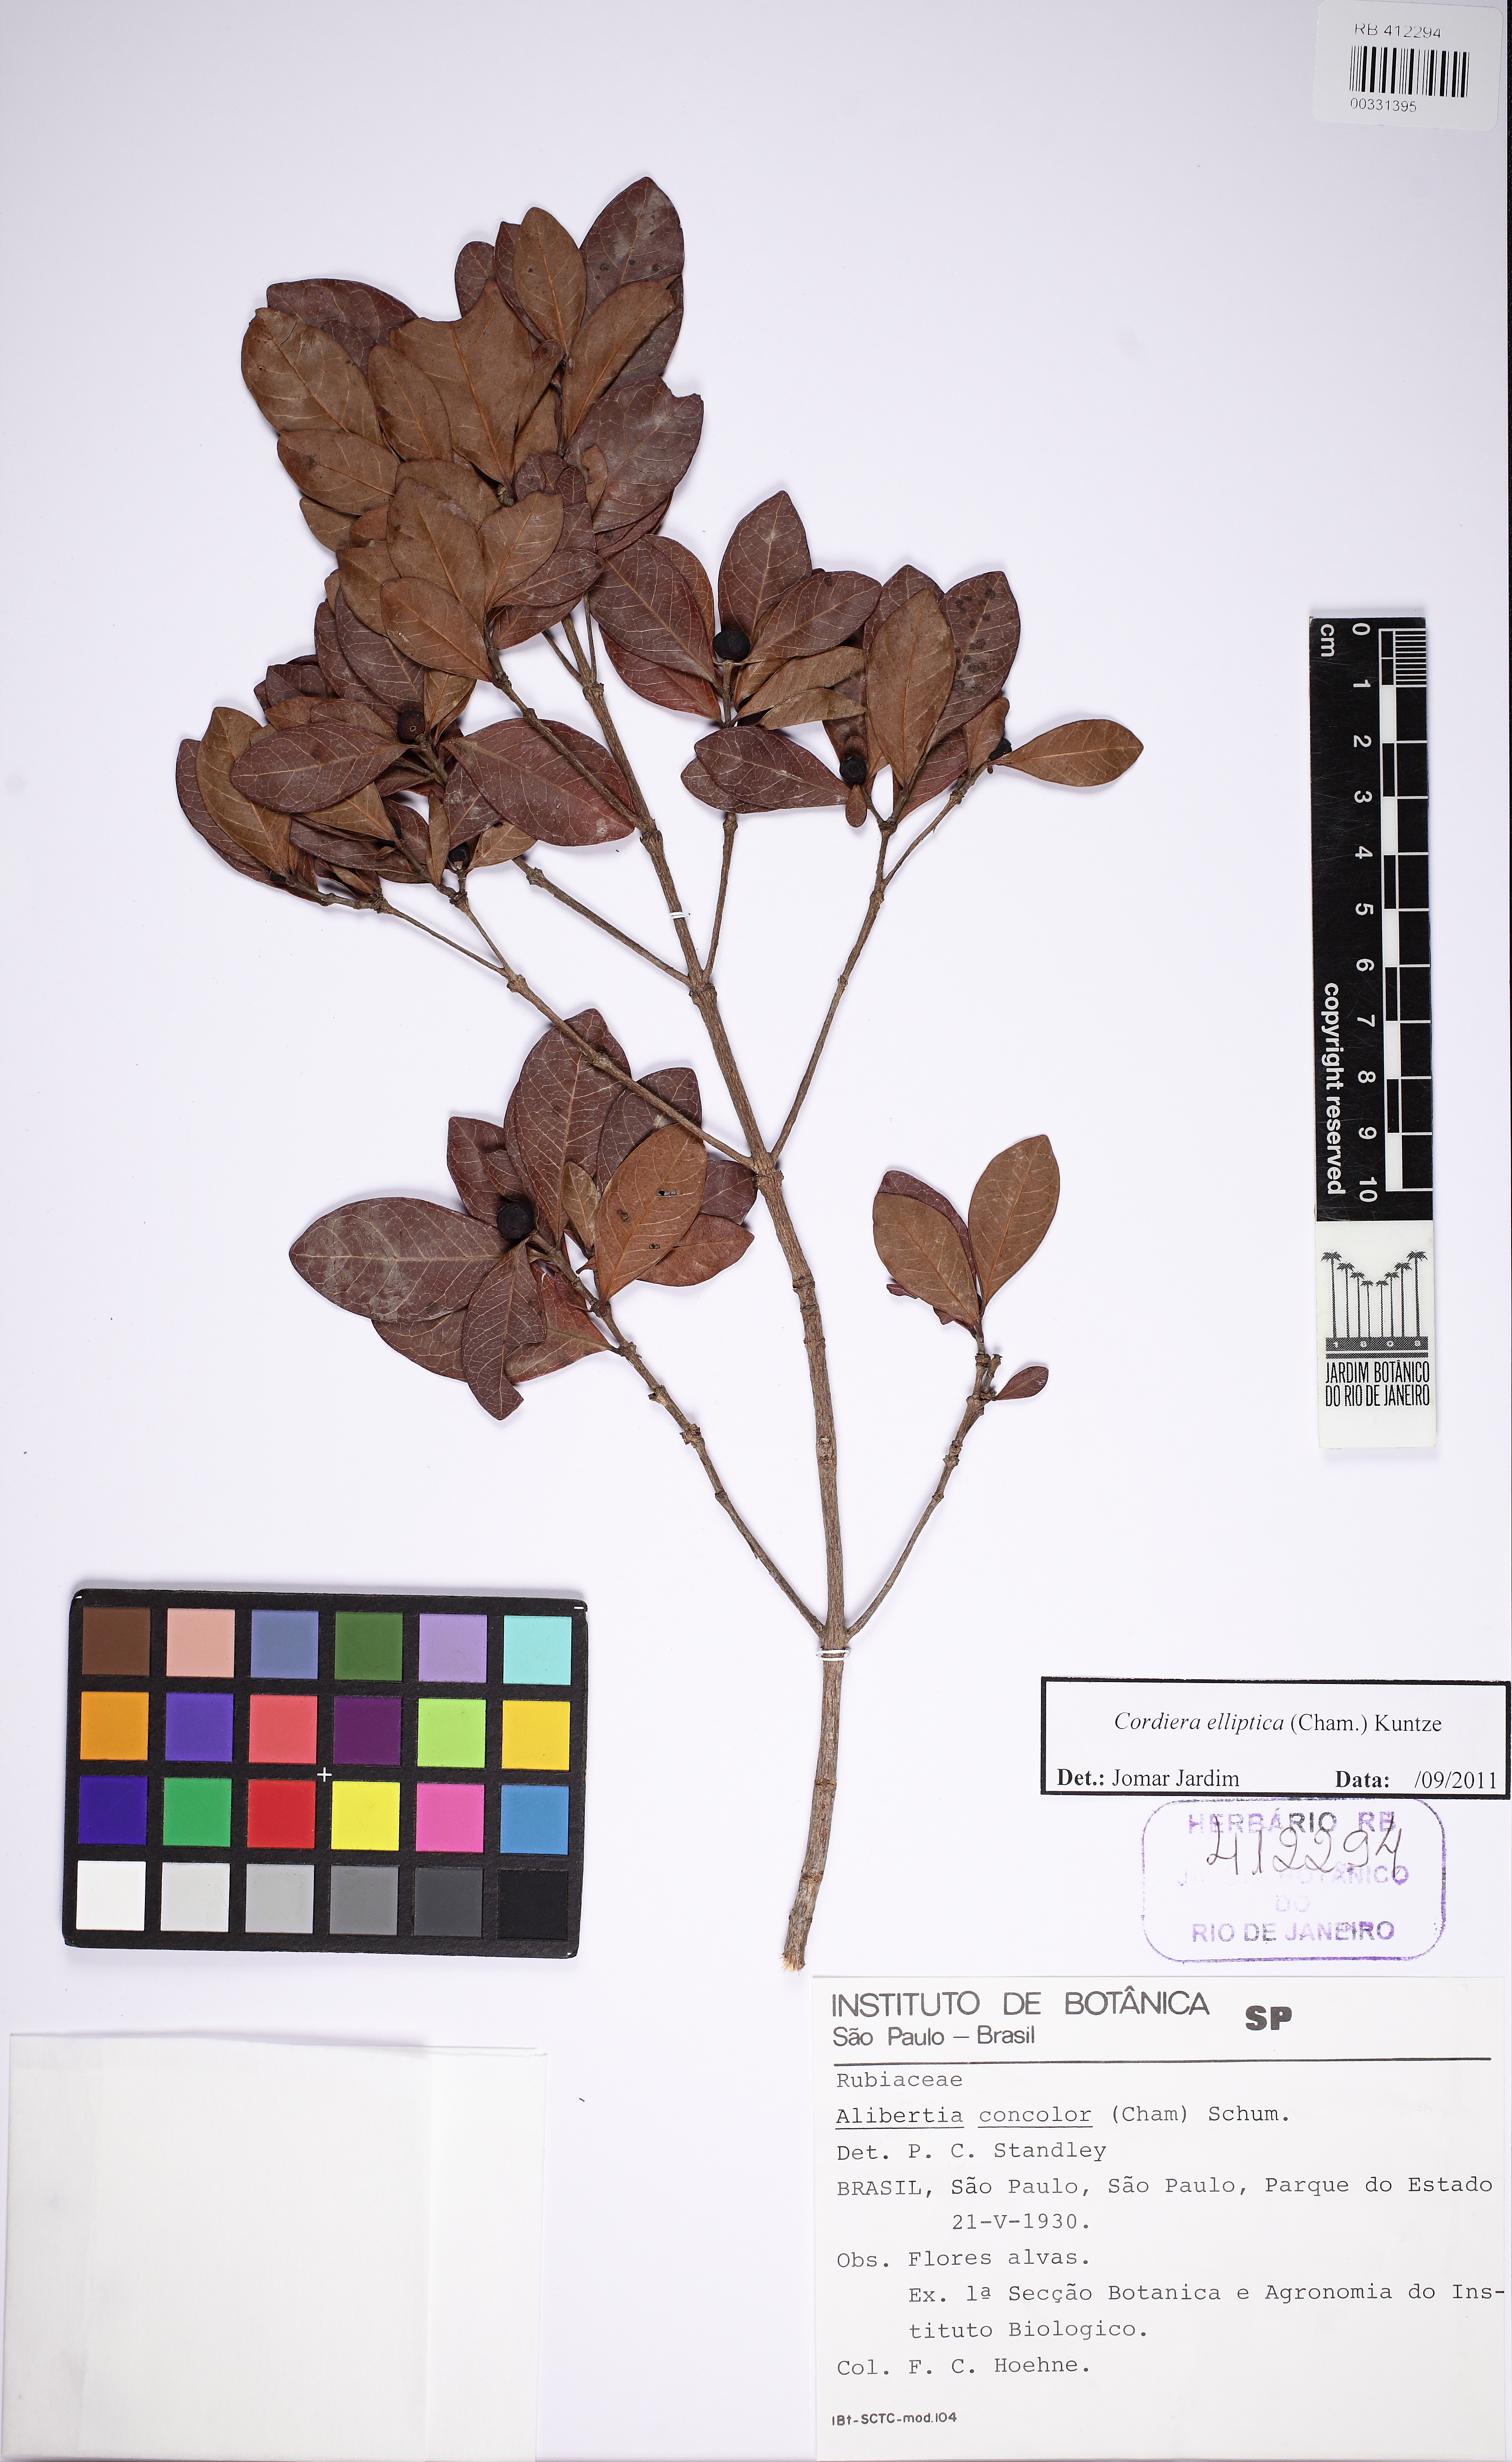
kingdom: Plantae
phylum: Tracheophyta
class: Magnoliopsida
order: Gentianales
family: Rubiaceae
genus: Cordiera
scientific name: Cordiera elliptica
